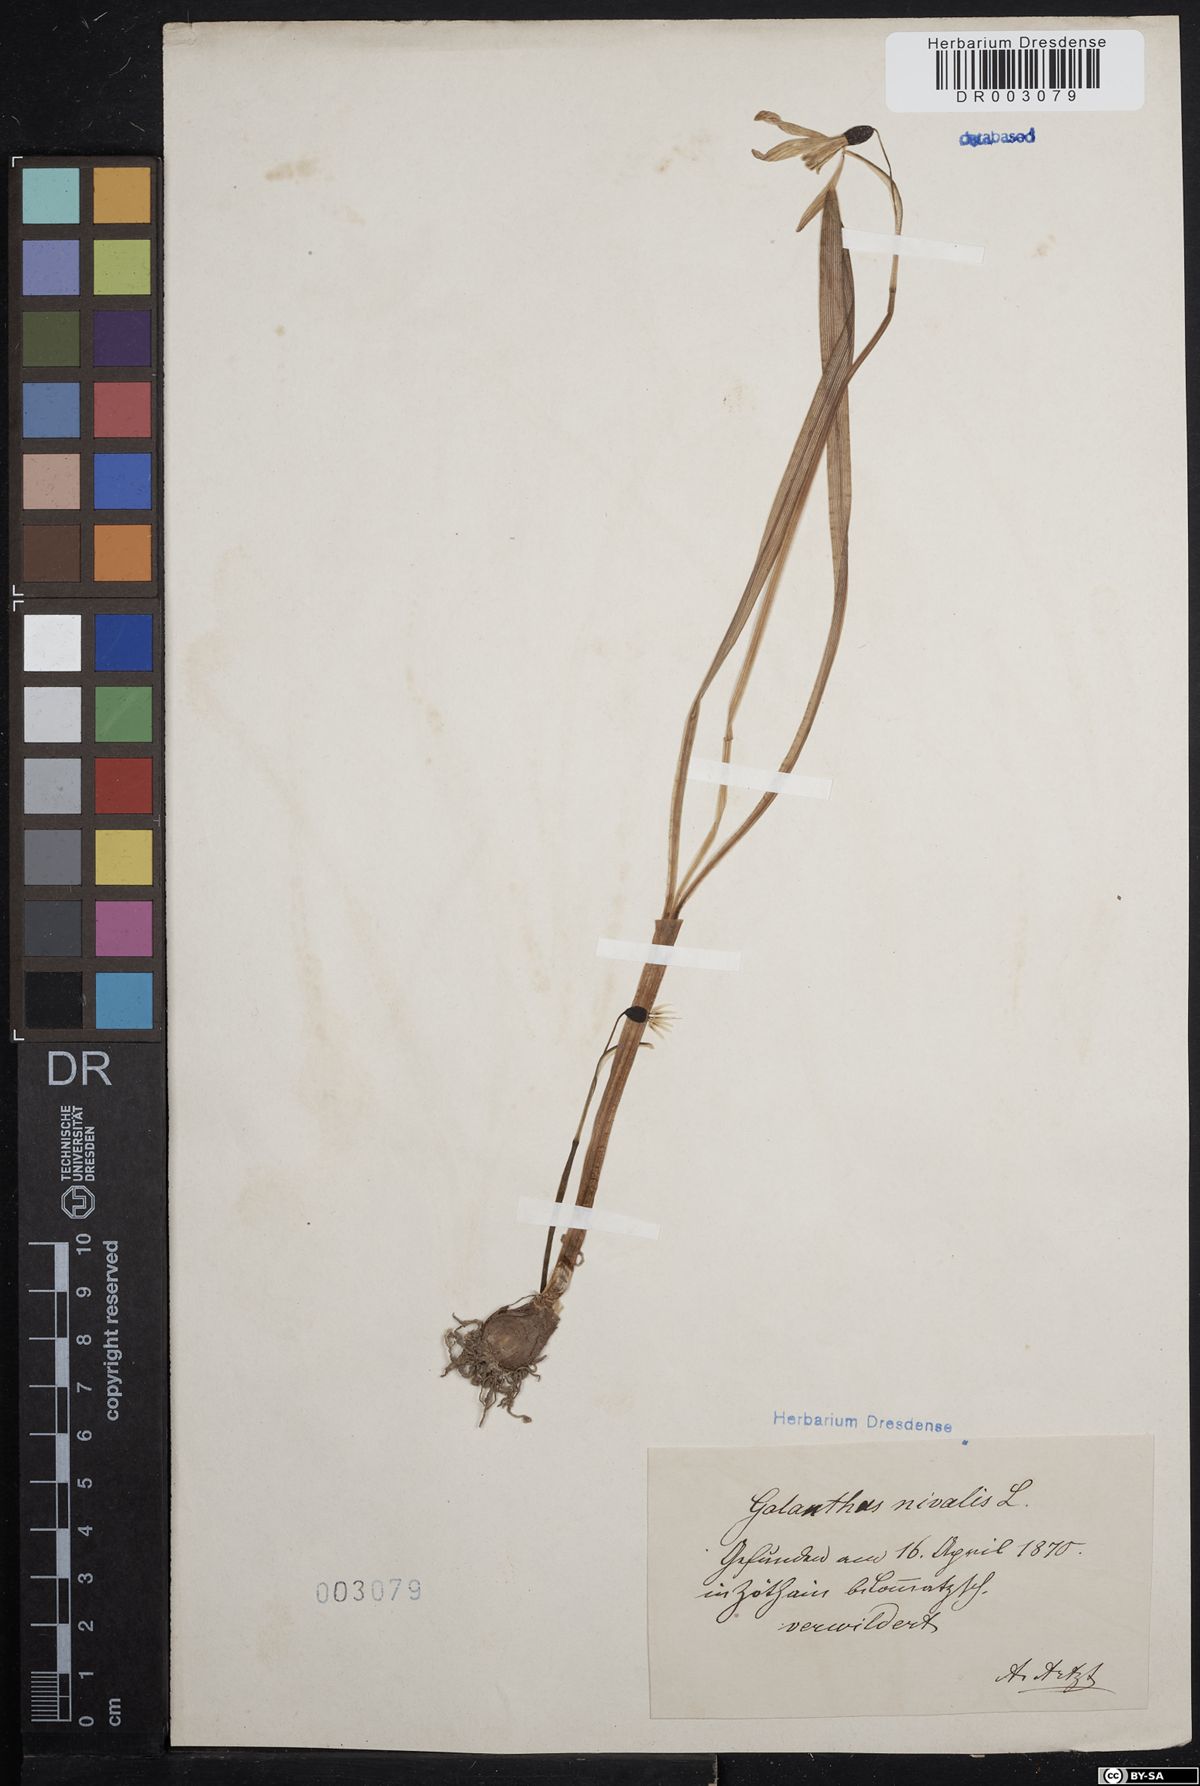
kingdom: Plantae
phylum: Tracheophyta
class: Liliopsida
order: Asparagales
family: Amaryllidaceae
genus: Galanthus
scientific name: Galanthus nivalis
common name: Snowdrop
